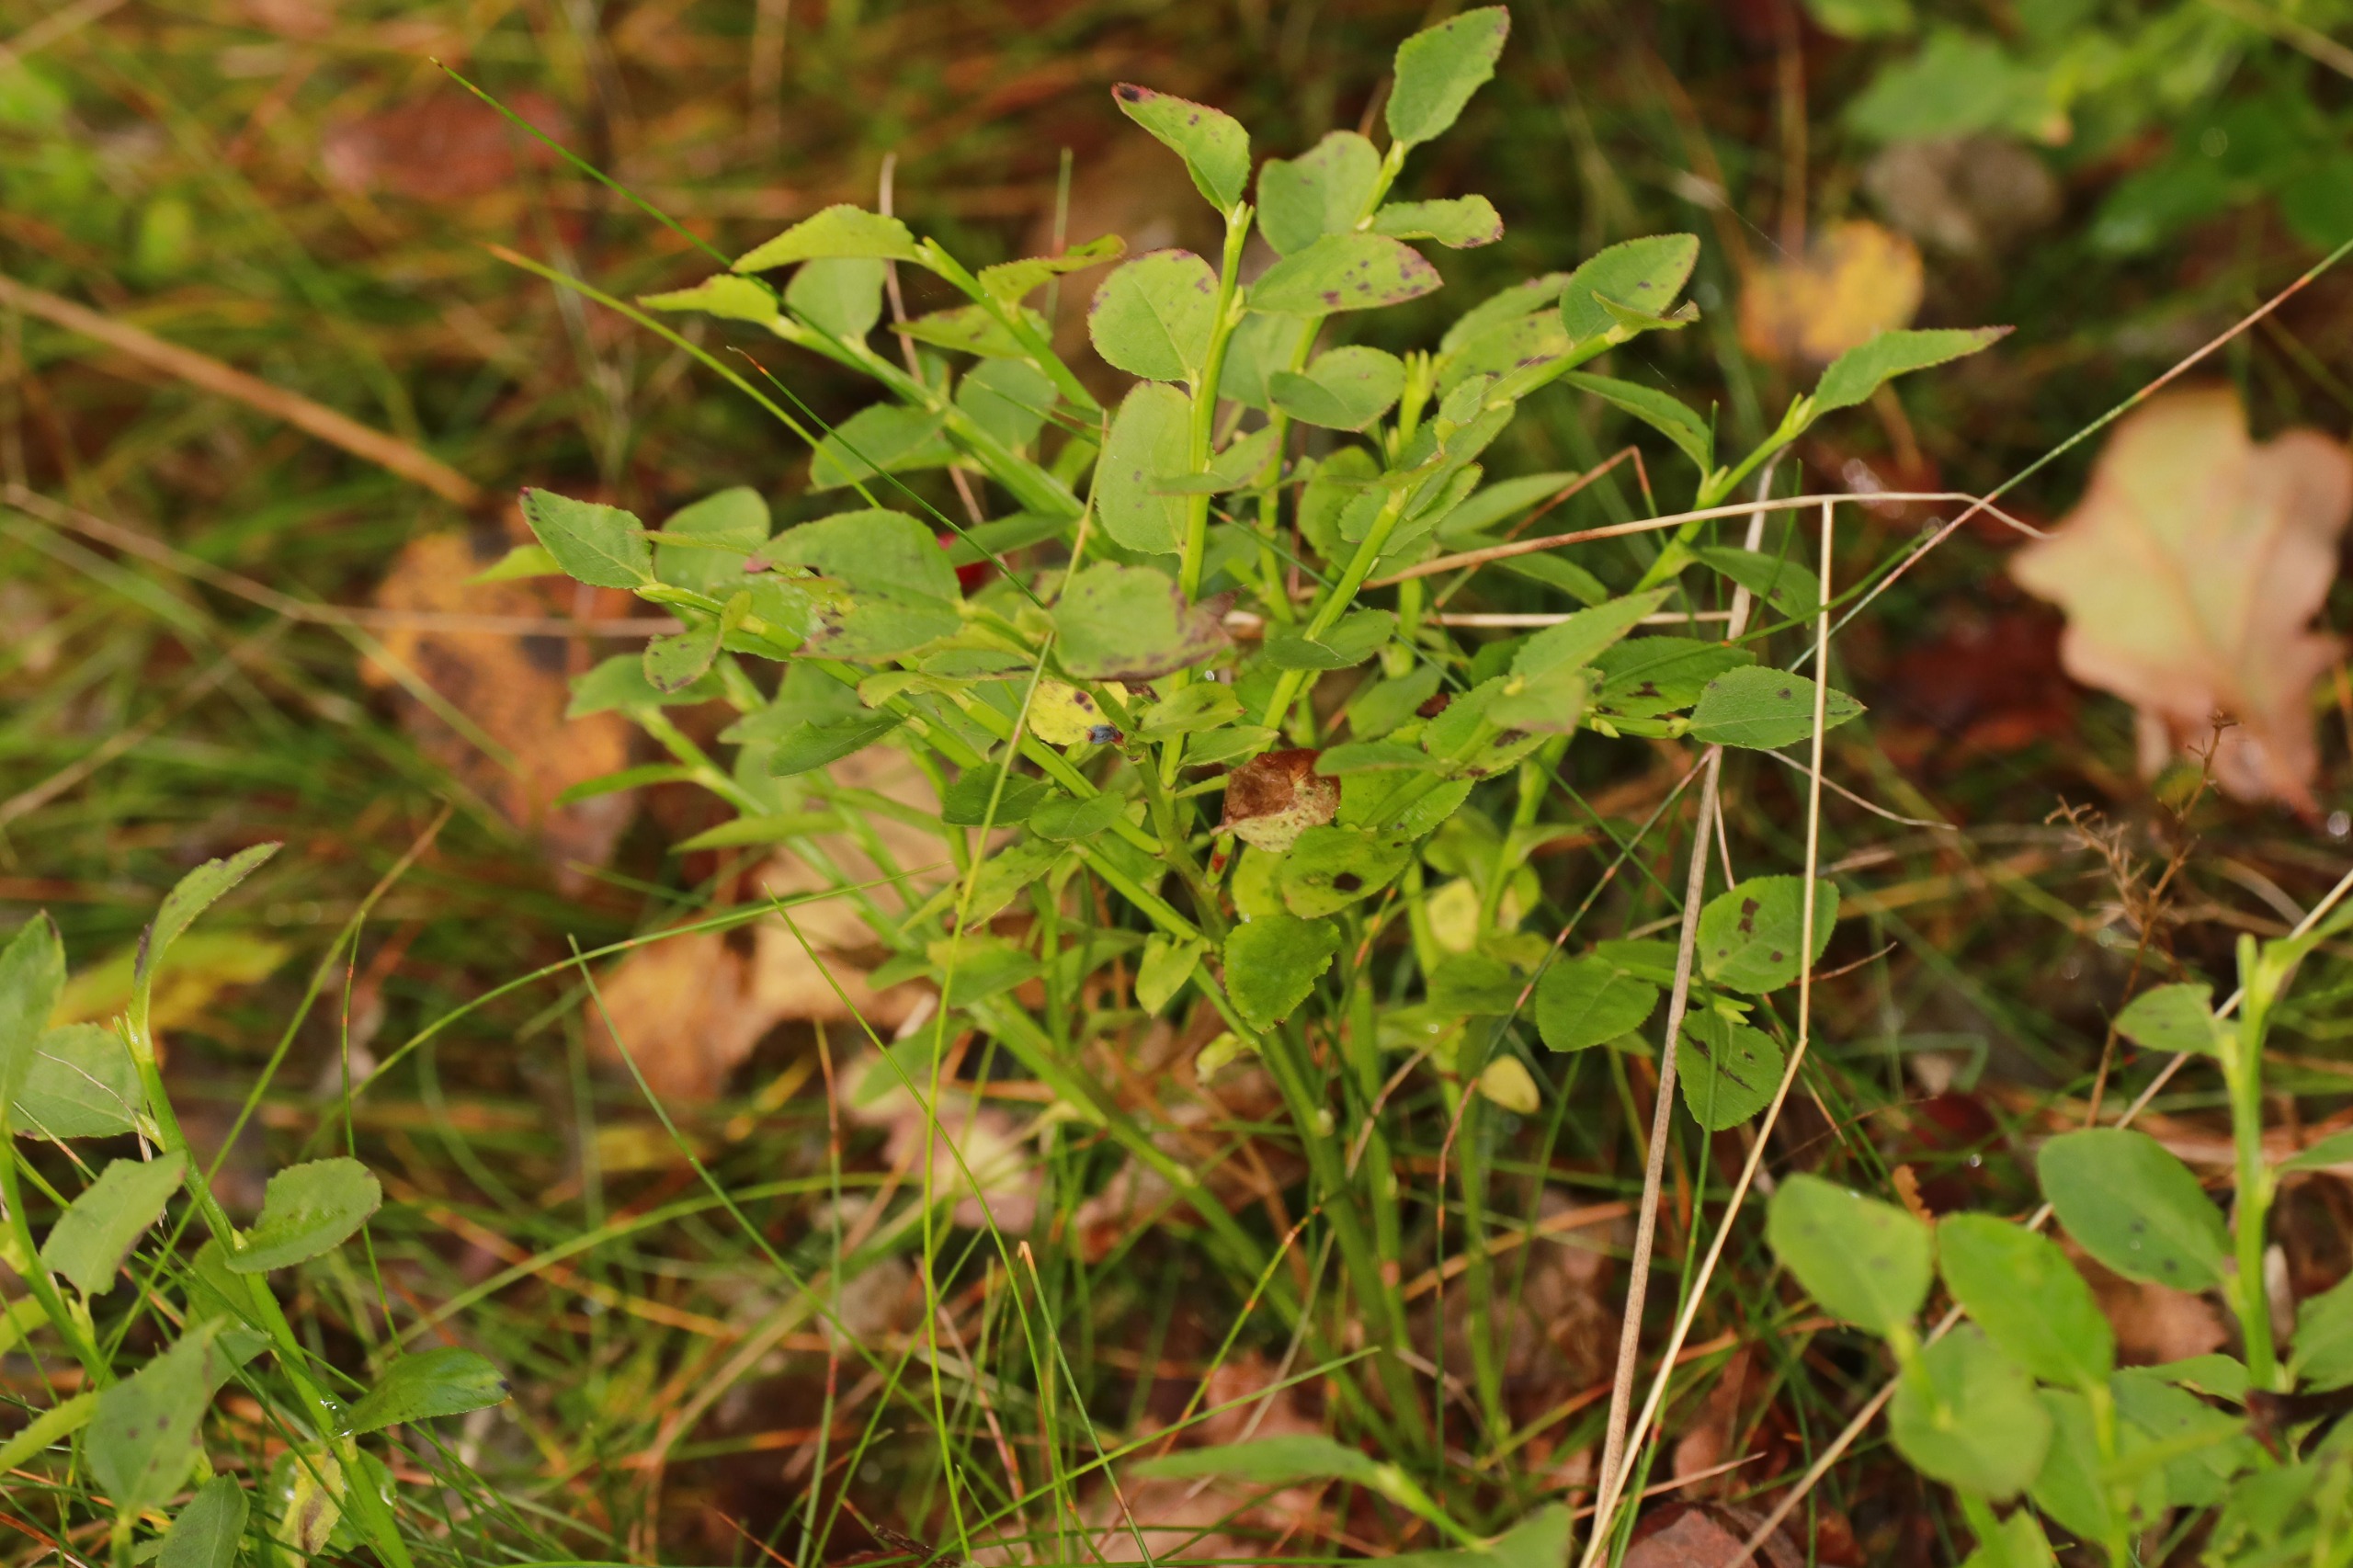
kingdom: Plantae
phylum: Tracheophyta
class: Magnoliopsida
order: Ericales
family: Ericaceae
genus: Vaccinium
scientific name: Vaccinium myrtillus
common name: Blåbær
